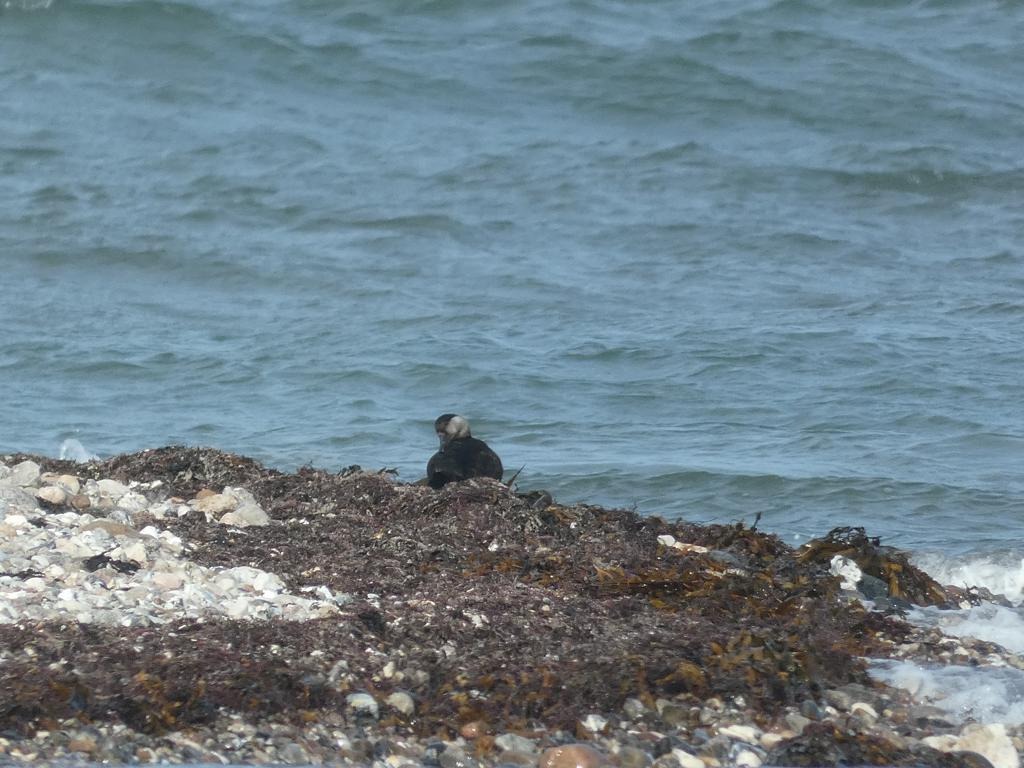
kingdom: Animalia
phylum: Chordata
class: Aves
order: Anseriformes
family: Anatidae
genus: Melanitta
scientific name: Melanitta nigra
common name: Sortand
